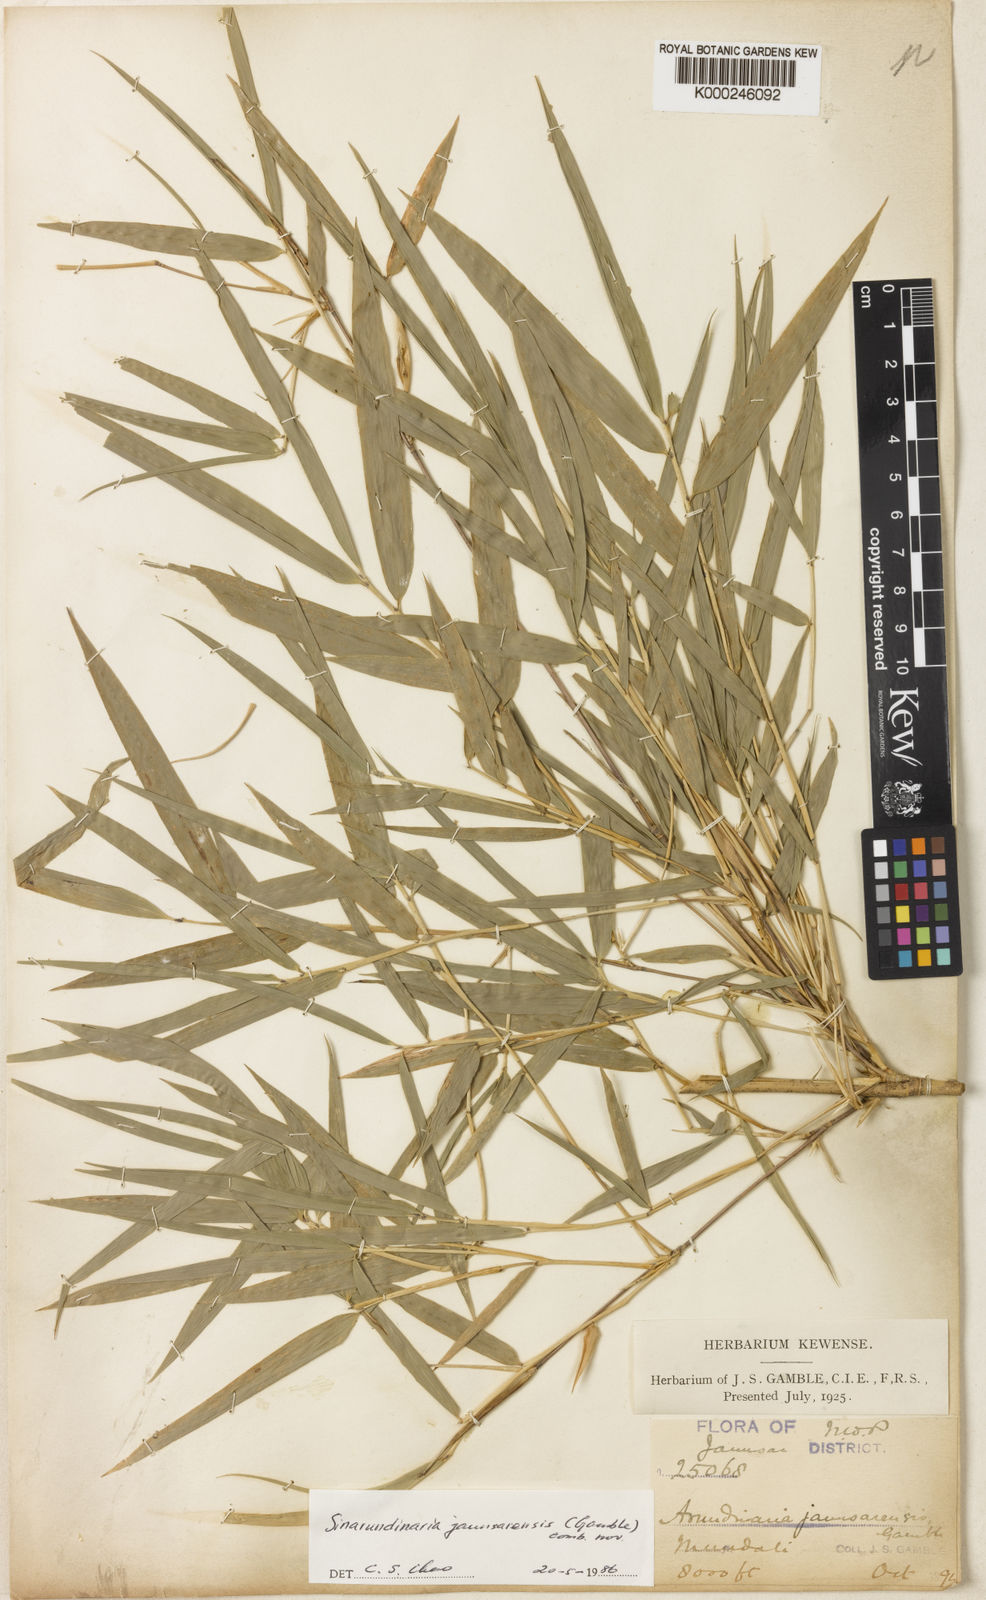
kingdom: Plantae
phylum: Tracheophyta
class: Liliopsida
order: Poales
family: Poaceae
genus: Yushania
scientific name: Yushania anceps
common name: Indian fountain-bamboo
